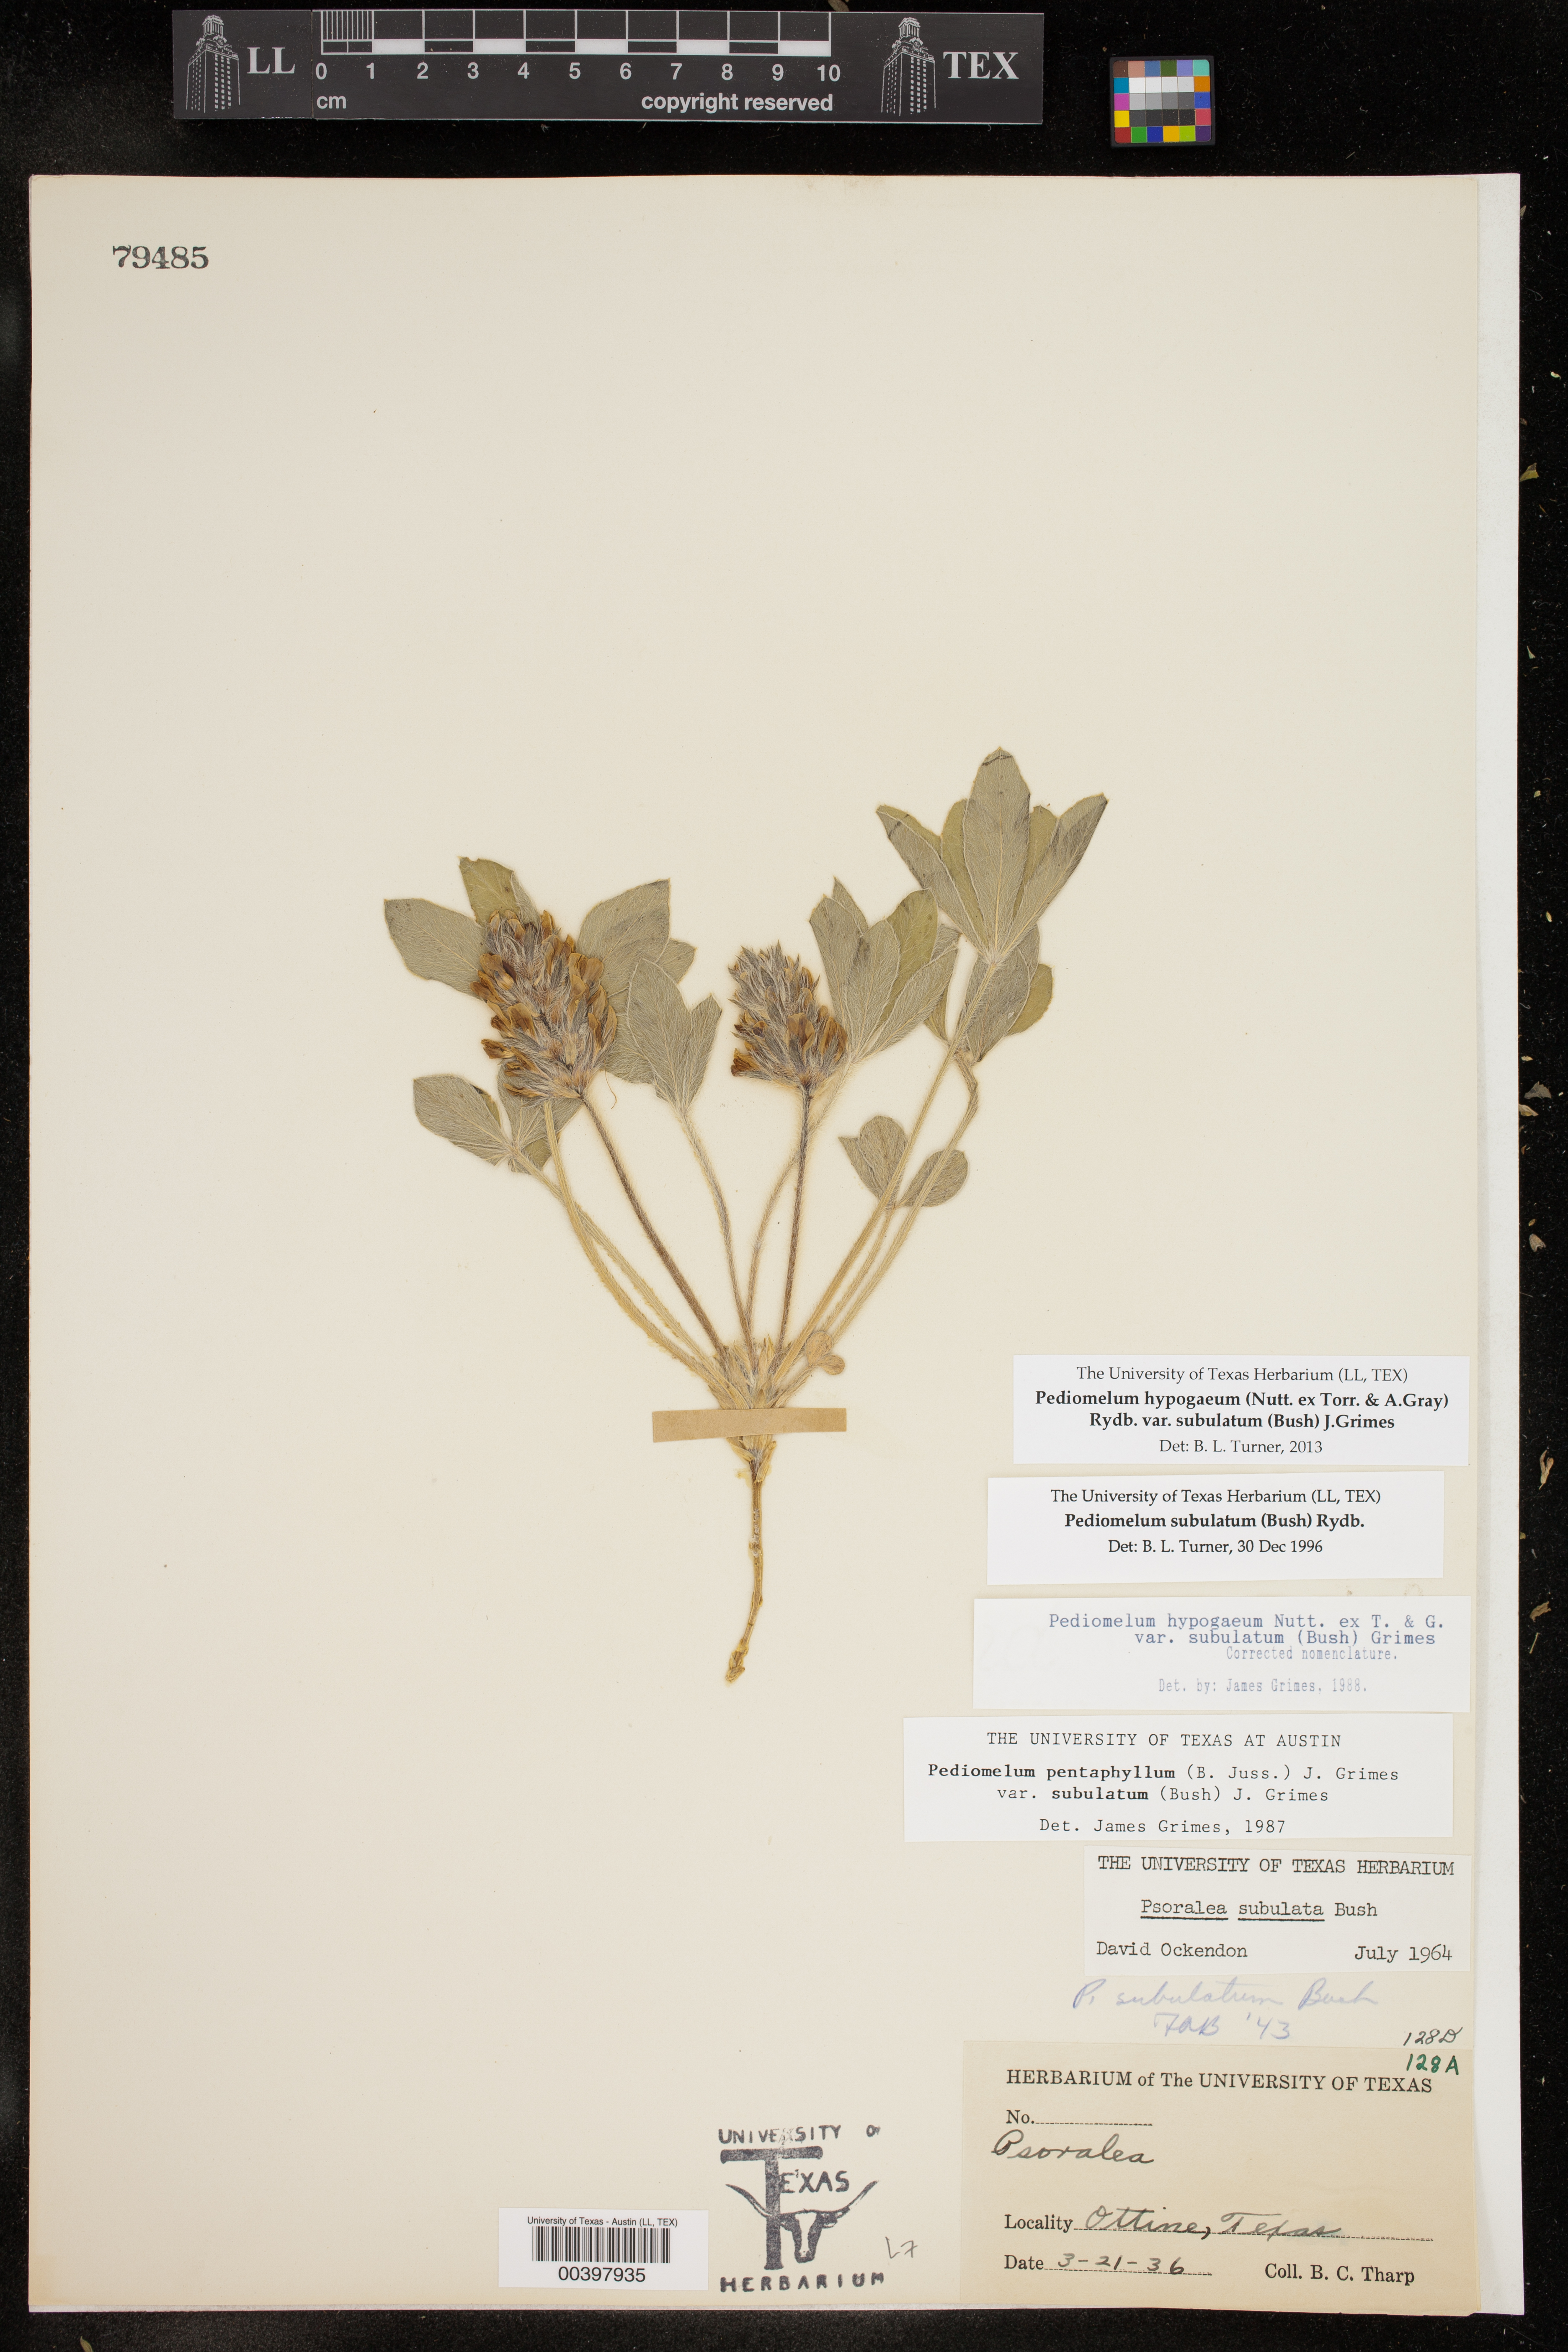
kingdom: Plantae
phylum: Tracheophyta
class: Magnoliopsida
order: Fabales
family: Fabaceae
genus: Pediomelum
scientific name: Pediomelum hypogaeum
